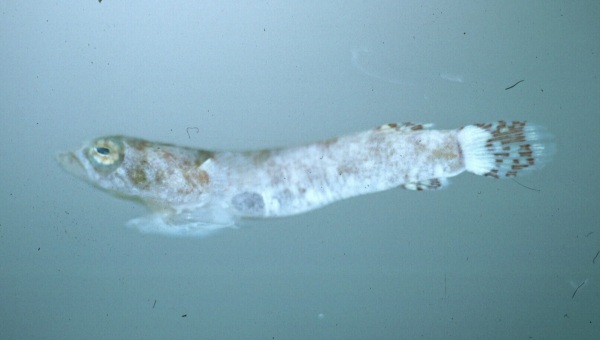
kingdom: Animalia
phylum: Chordata
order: Gobiesociformes
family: Gobiesocidae
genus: Diplecogaster
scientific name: Diplecogaster megalops
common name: Bigeye clingfish
